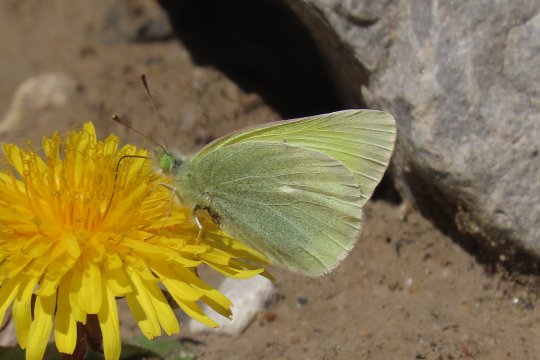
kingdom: Animalia
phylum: Arthropoda
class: Insecta
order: Lepidoptera
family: Pieridae
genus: Colias
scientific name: Colias alexandra
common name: Queen Alexandra's Sulphur
